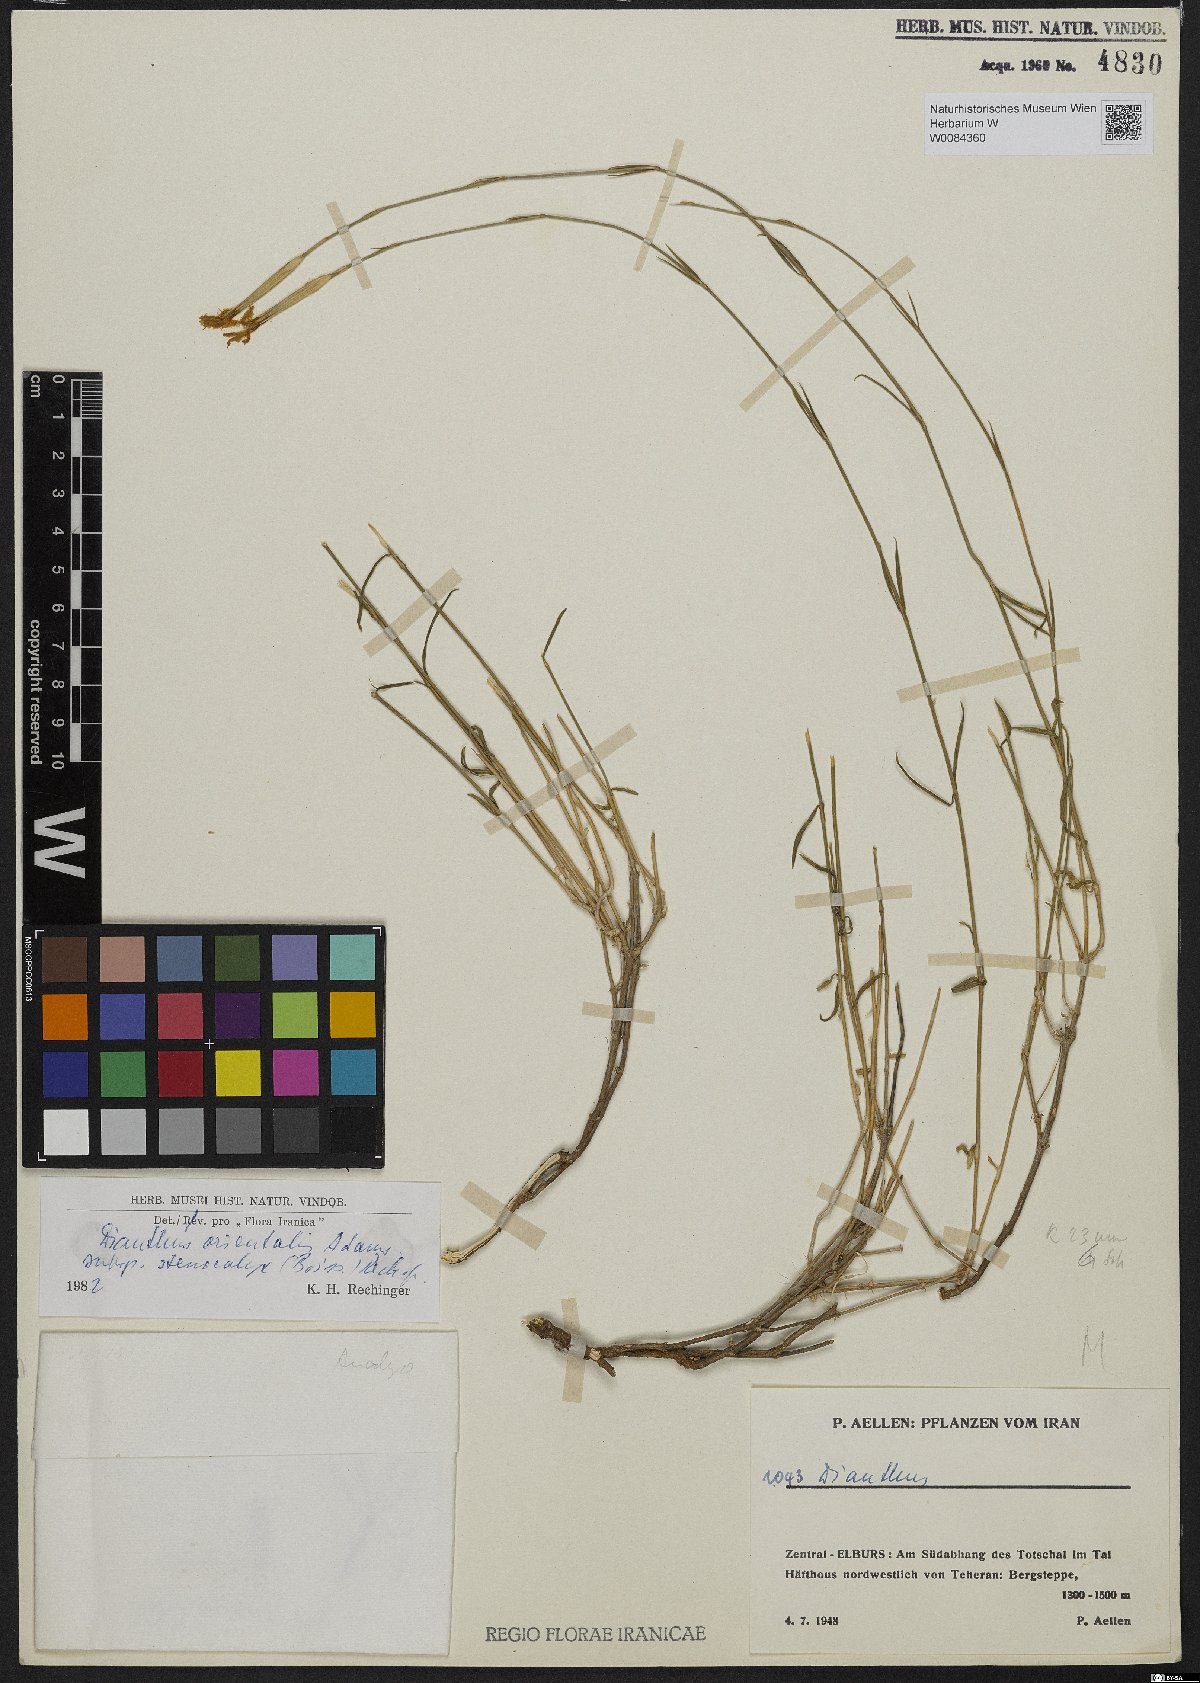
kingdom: Plantae
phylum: Tracheophyta
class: Magnoliopsida
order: Caryophyllales
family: Caryophyllaceae
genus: Dianthus
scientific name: Dianthus orientalis
